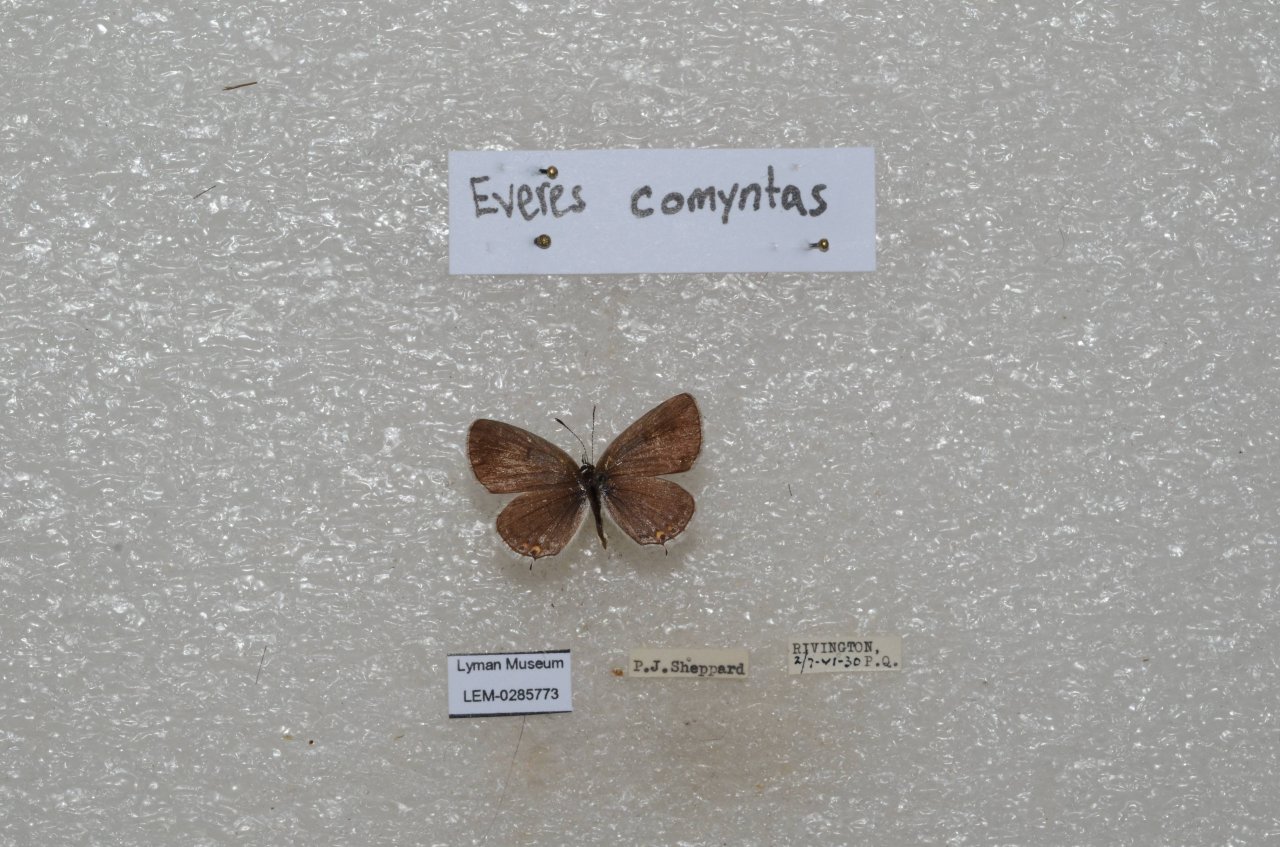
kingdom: Animalia
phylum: Arthropoda
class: Insecta
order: Lepidoptera
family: Lycaenidae
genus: Elkalyce
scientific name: Elkalyce comyntas
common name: Eastern Tailed-Blue
